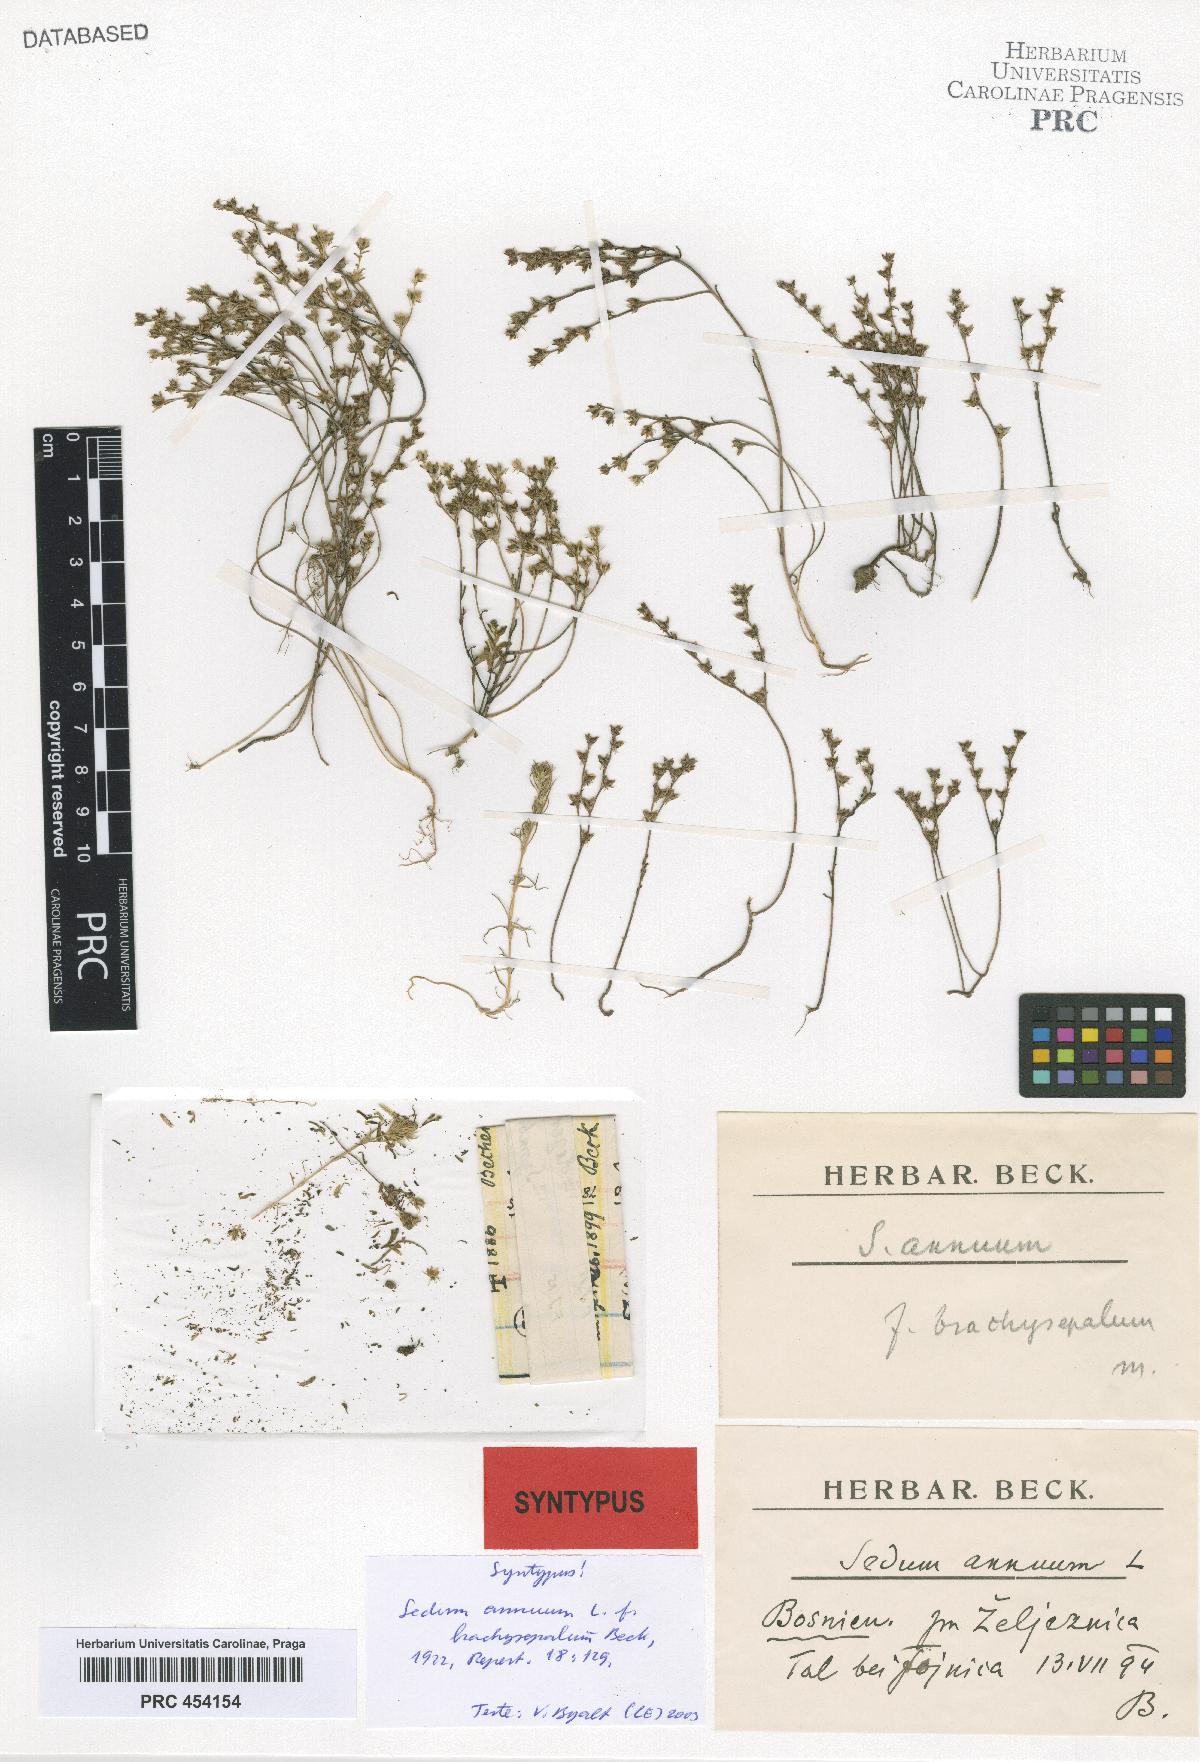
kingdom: Plantae
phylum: Tracheophyta
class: Magnoliopsida
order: Saxifragales
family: Crassulaceae
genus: Sedum
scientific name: Sedum annuum
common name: Annual stonecrop
